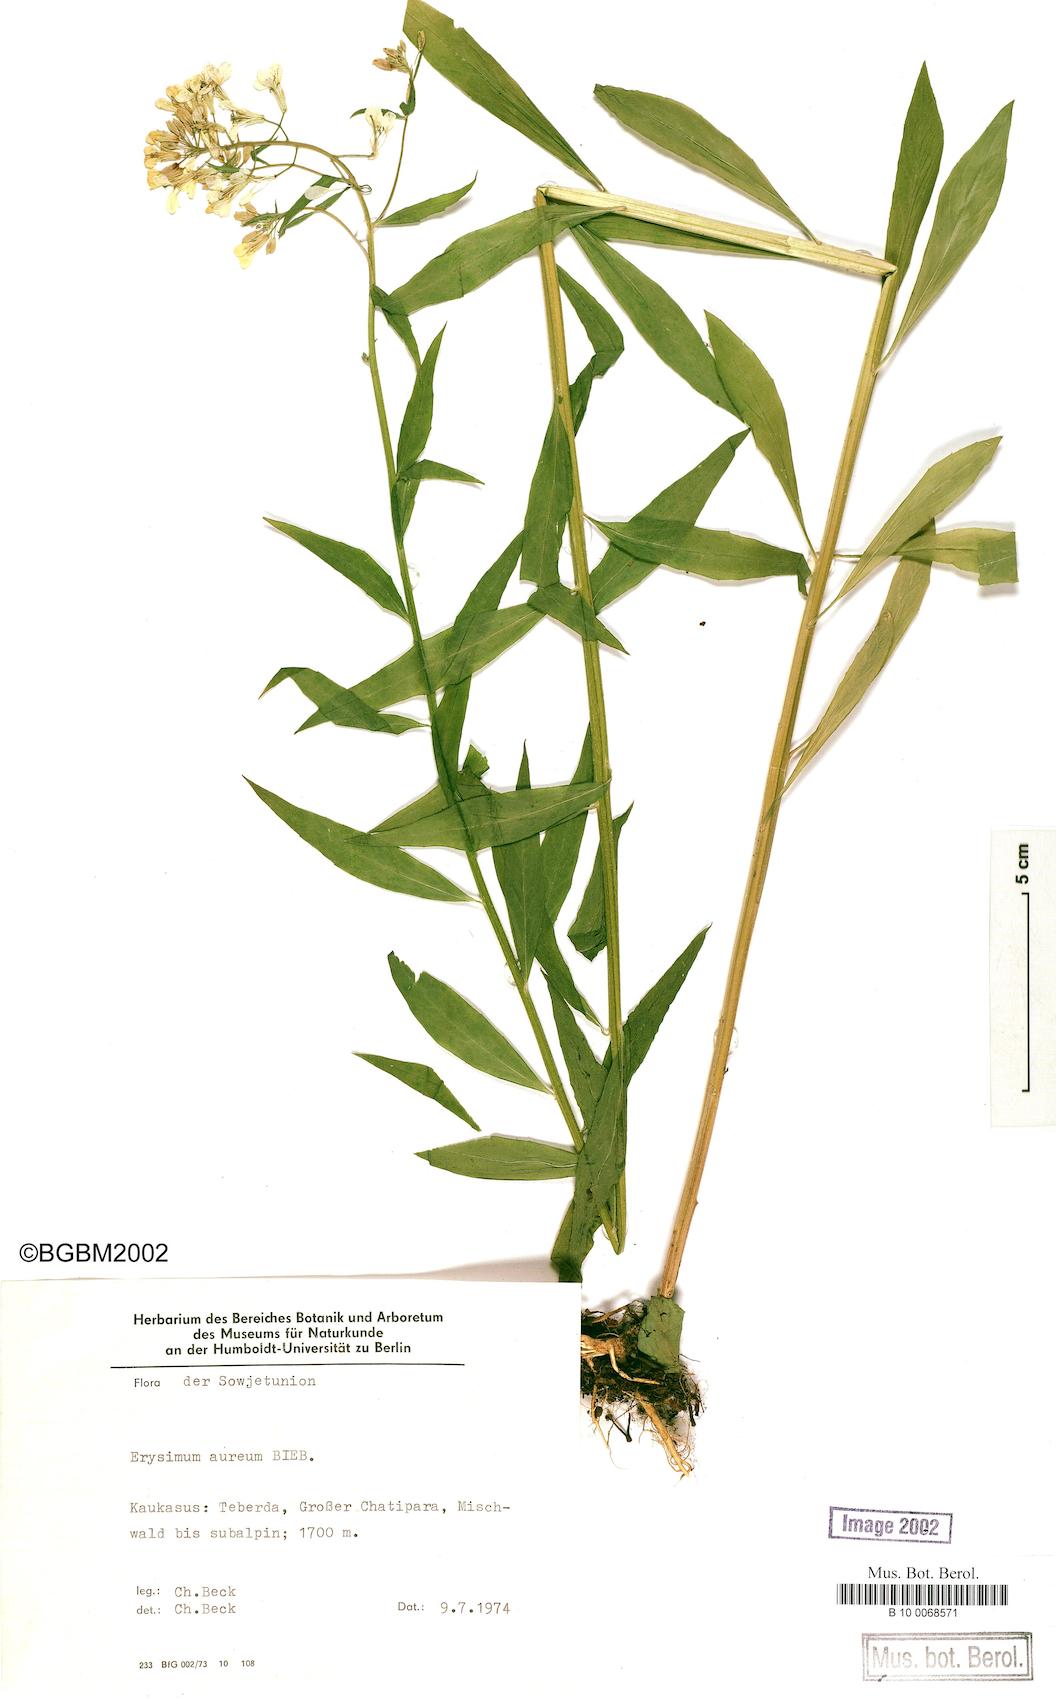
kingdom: Plantae
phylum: Tracheophyta
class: Magnoliopsida
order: Brassicales
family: Brassicaceae
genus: Erysimum
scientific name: Erysimum aureum
